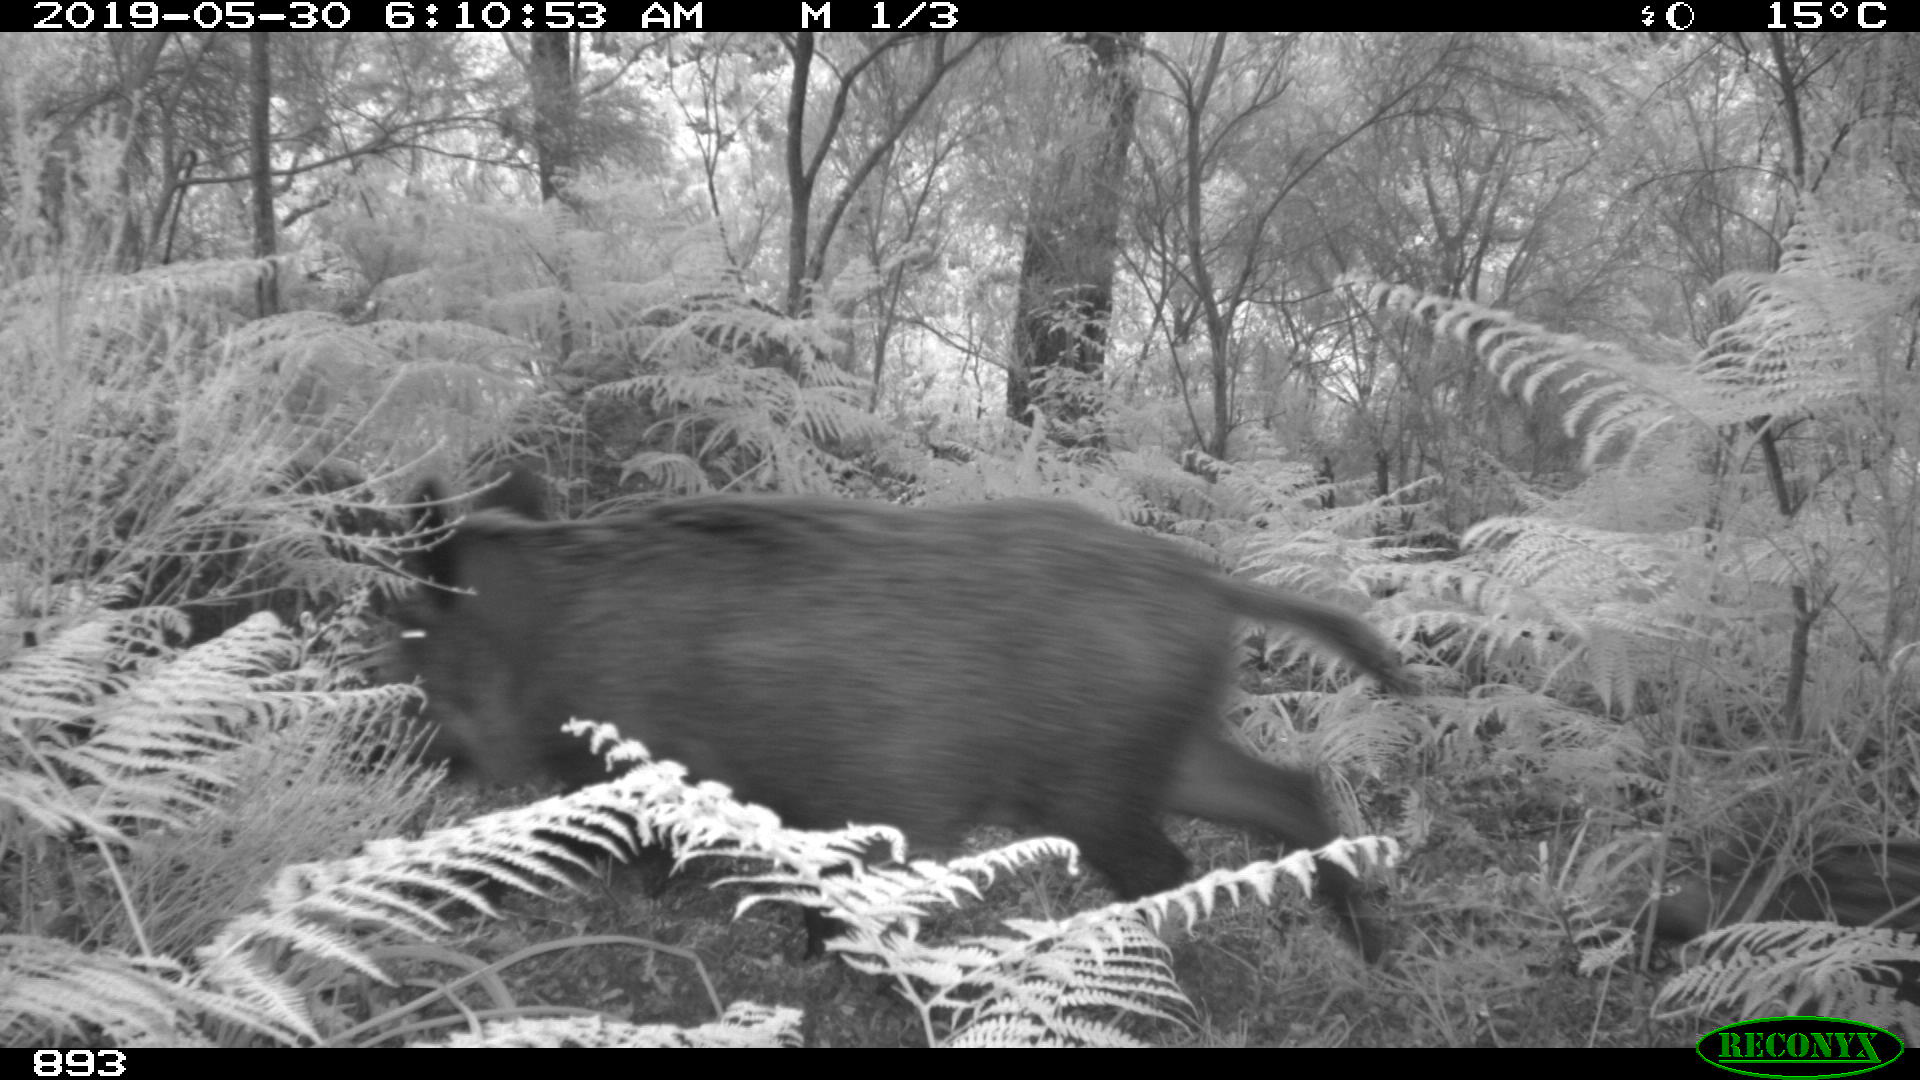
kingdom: Animalia
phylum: Chordata
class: Mammalia
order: Artiodactyla
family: Suidae
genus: Sus
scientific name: Sus scrofa
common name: Wild boar
